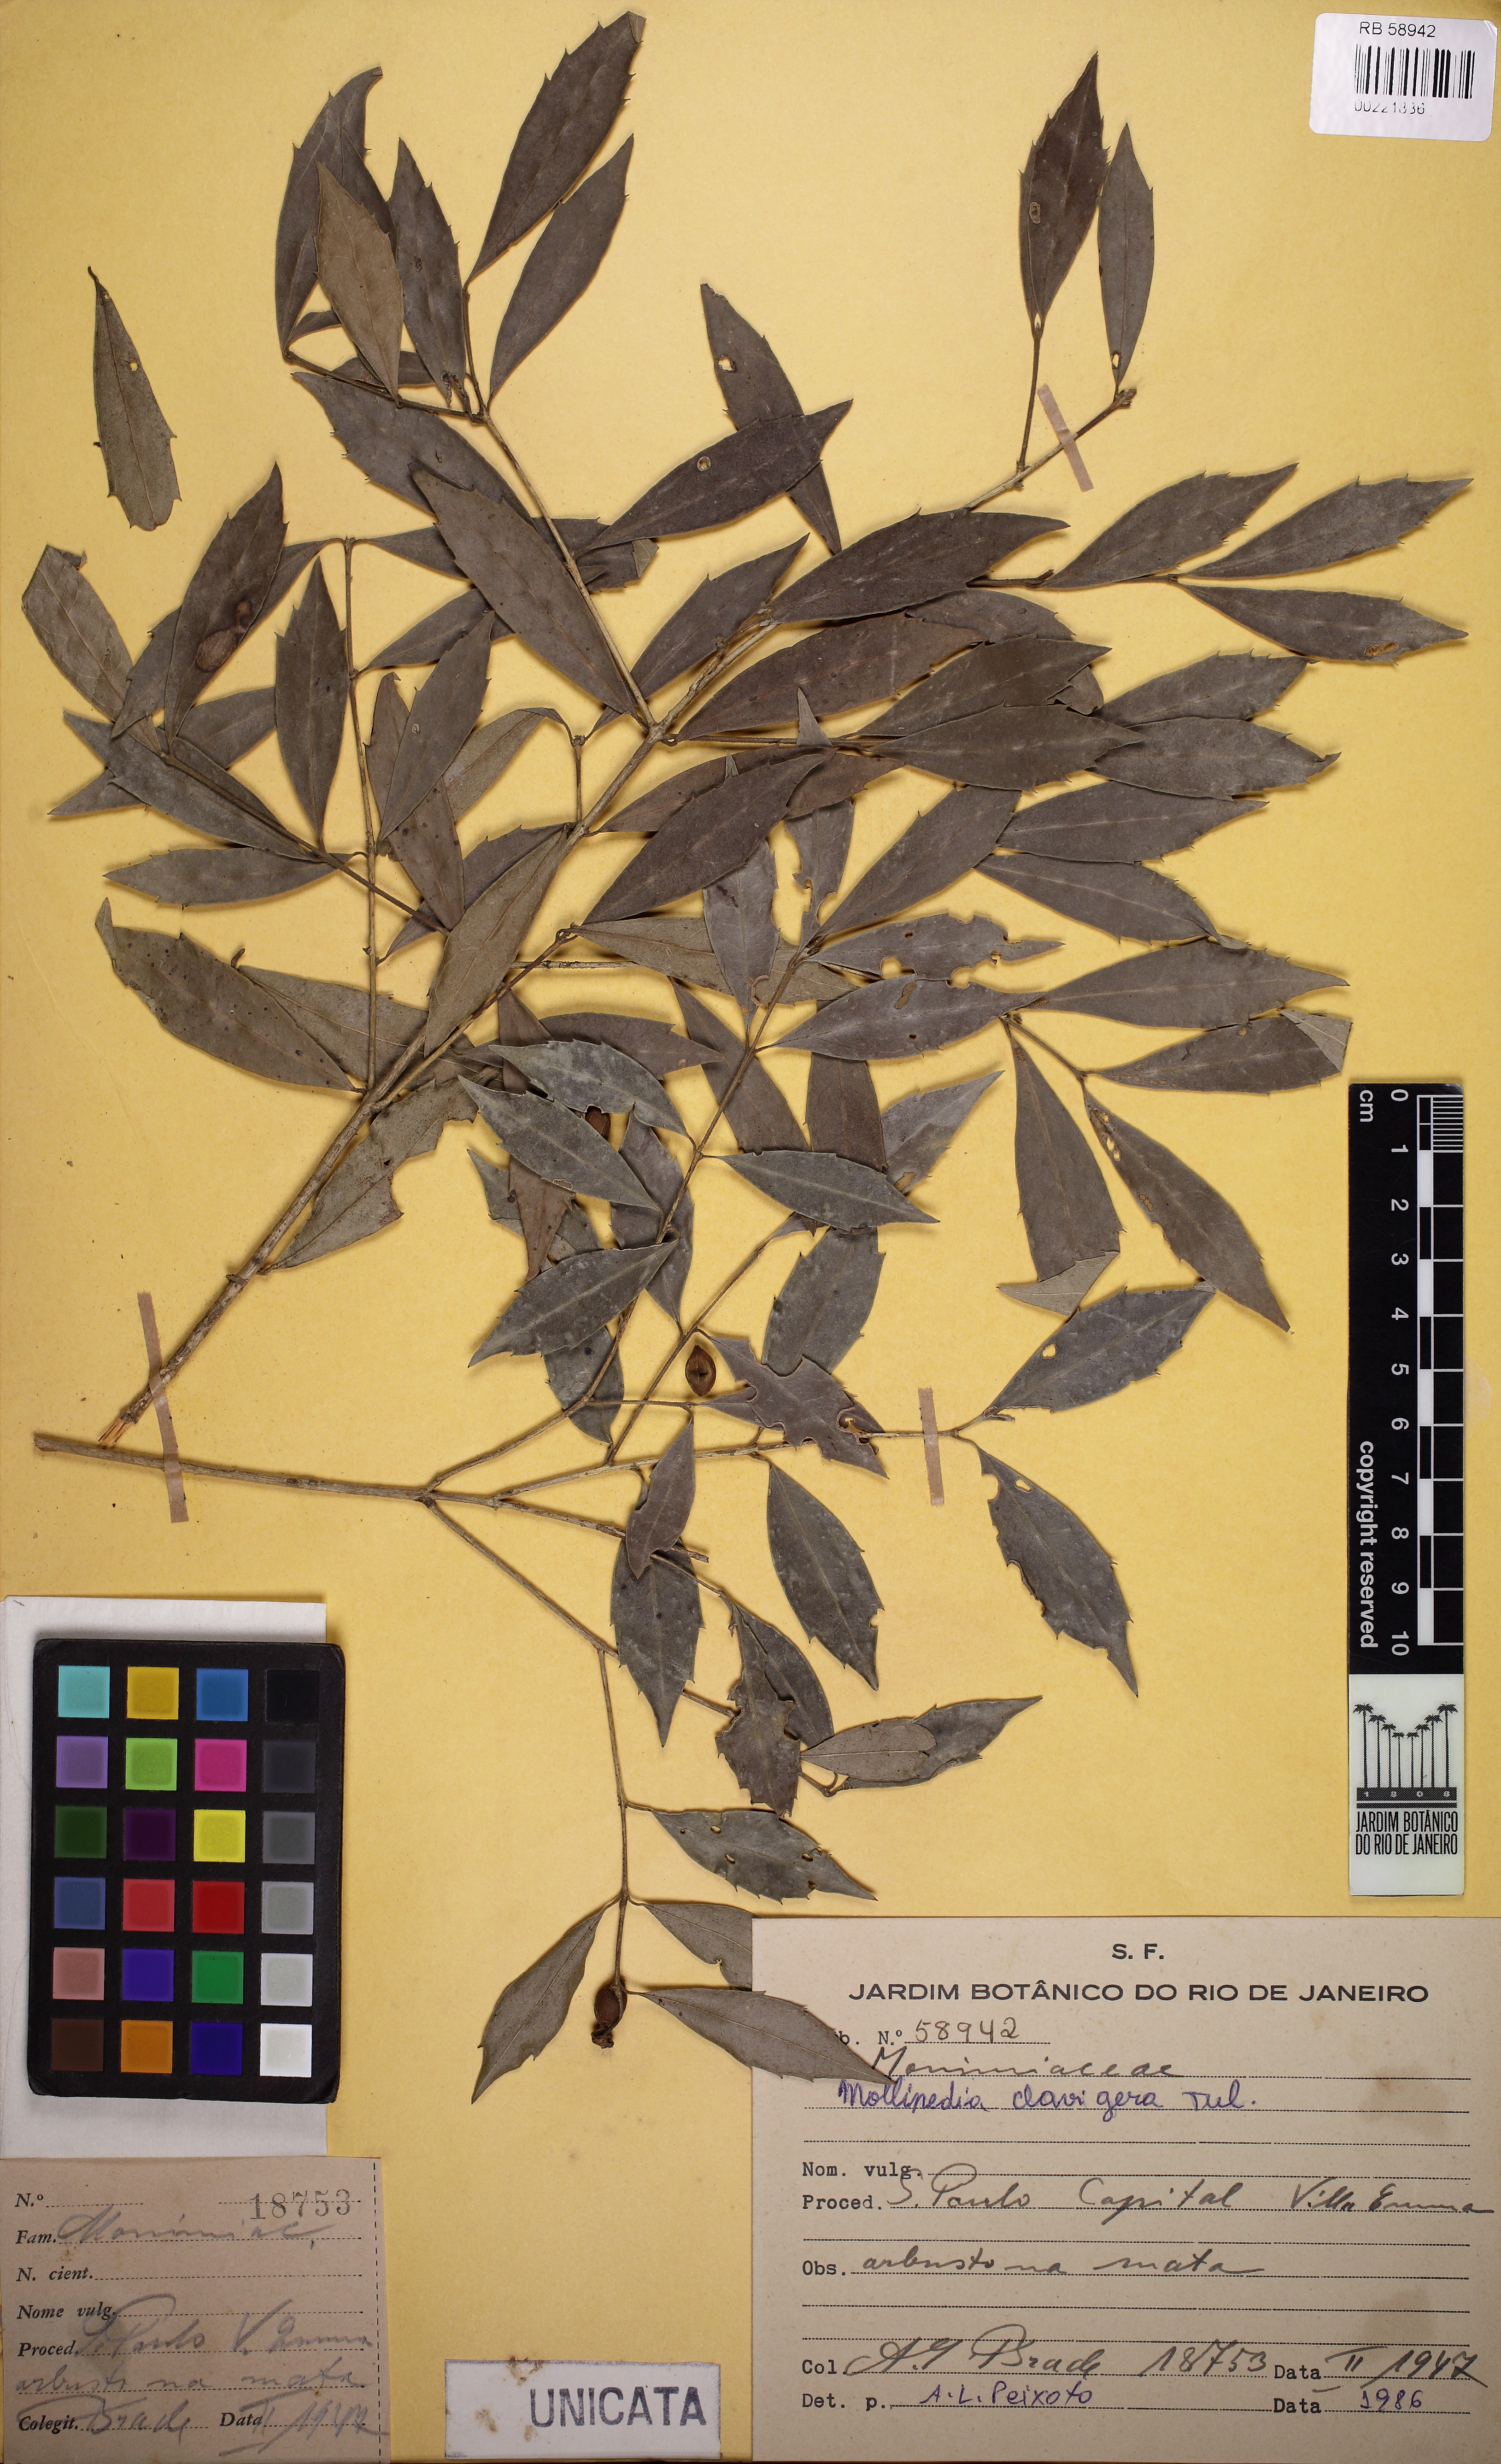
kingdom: Plantae
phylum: Tracheophyta
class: Magnoliopsida
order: Laurales
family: Monimiaceae
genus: Mollinedia
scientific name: Mollinedia clavigera
